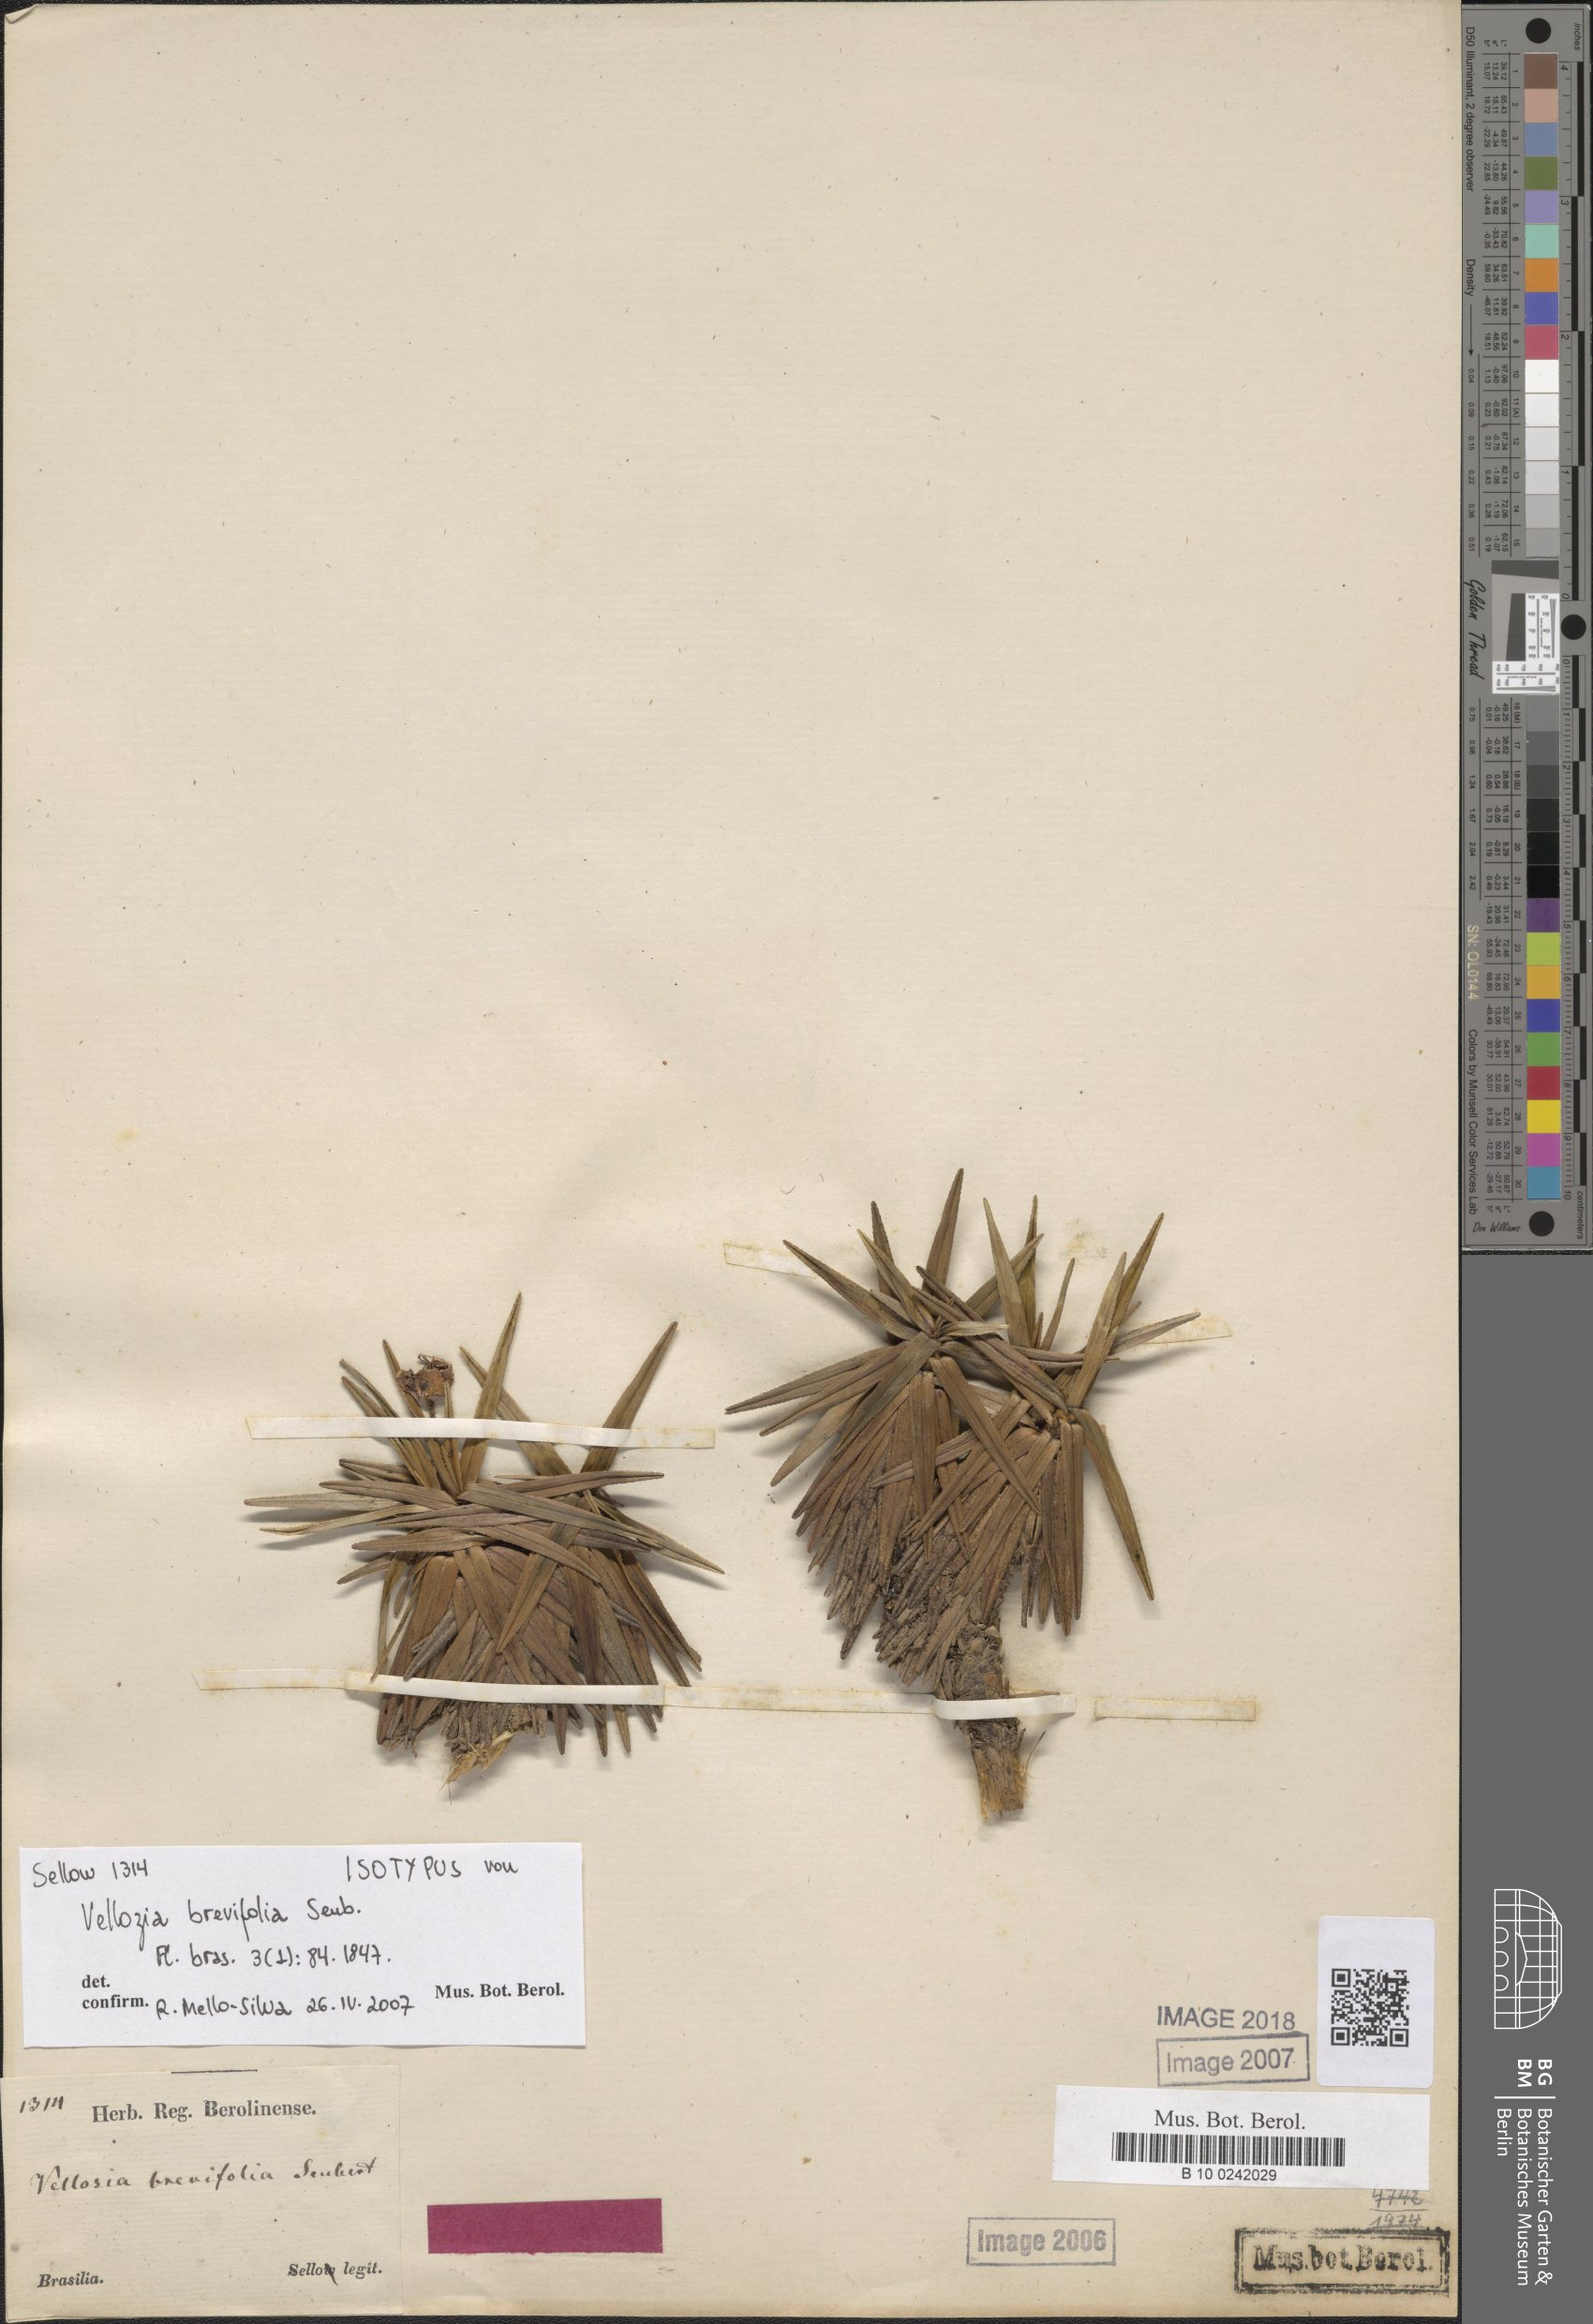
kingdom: Plantae
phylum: Tracheophyta
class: Liliopsida
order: Pandanales
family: Velloziaceae
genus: Vellozia
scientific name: Vellozia brevifolia
